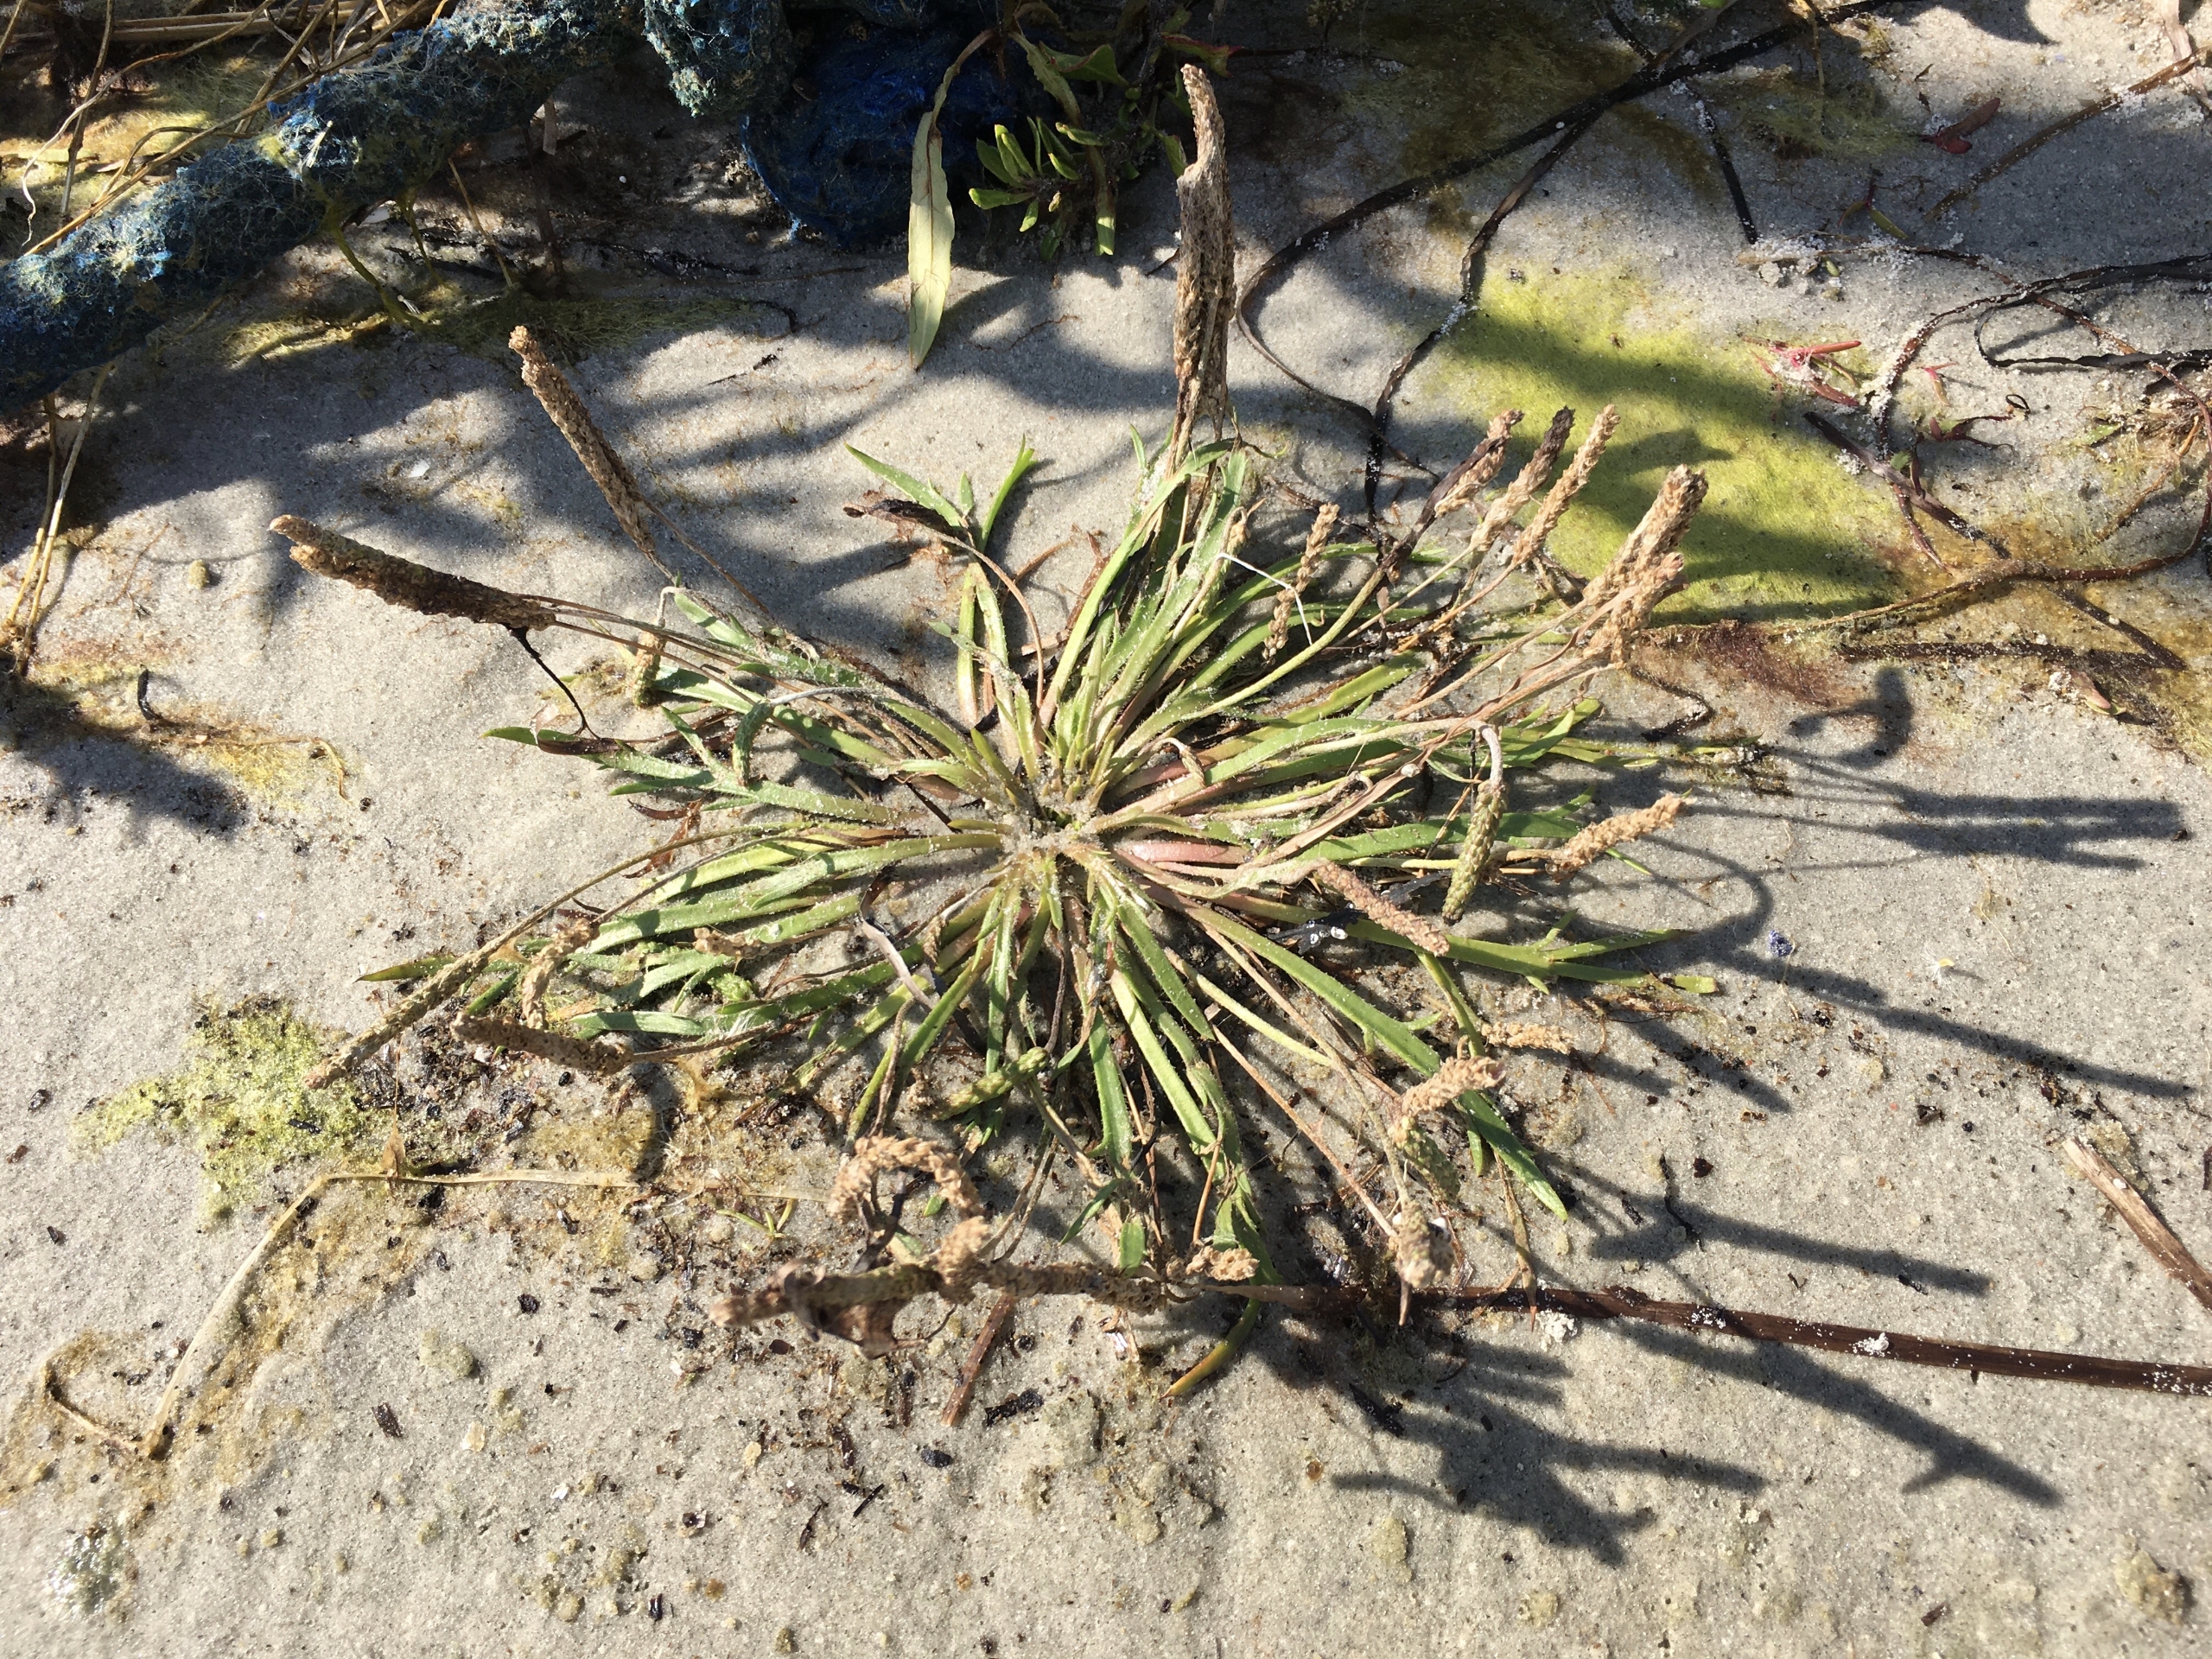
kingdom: Plantae
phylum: Tracheophyta
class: Magnoliopsida
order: Lamiales
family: Plantaginaceae
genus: Plantago
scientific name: Plantago coronopus
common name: Fliget vejbred
